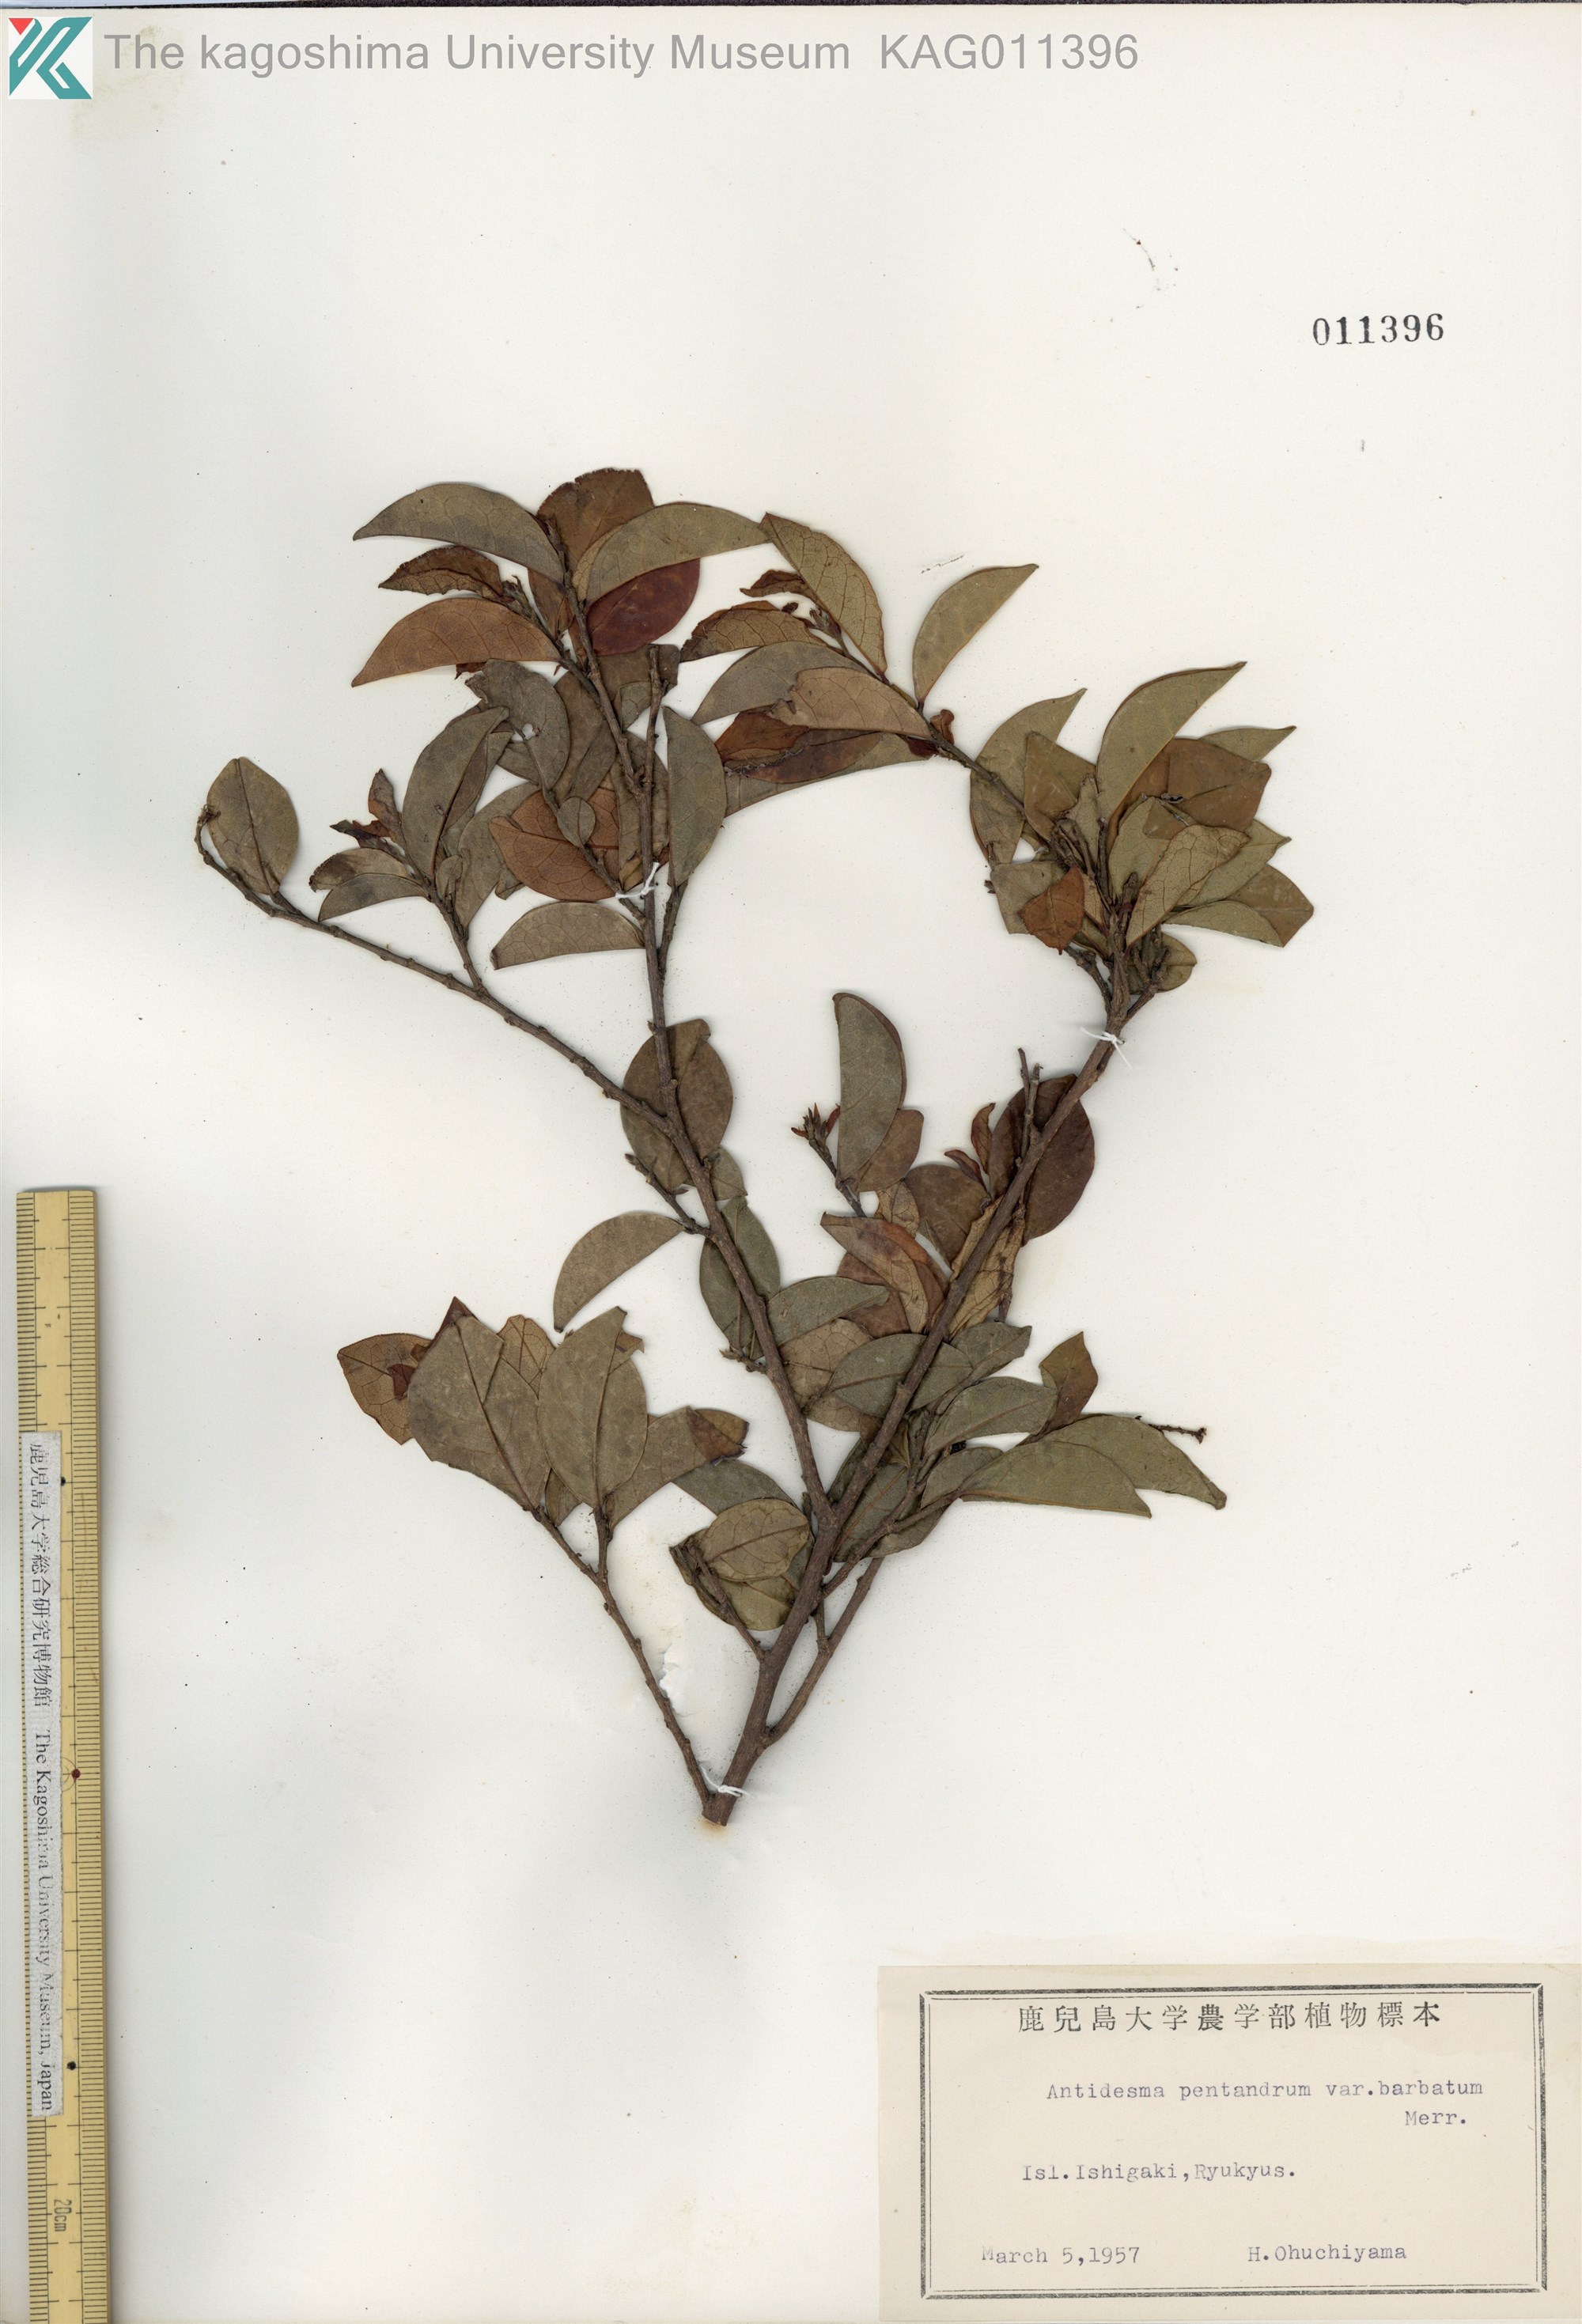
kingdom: Plantae
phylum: Tracheophyta
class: Magnoliopsida
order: Malpighiales
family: Phyllanthaceae
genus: Antidesma
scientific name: Antidesma montanum
